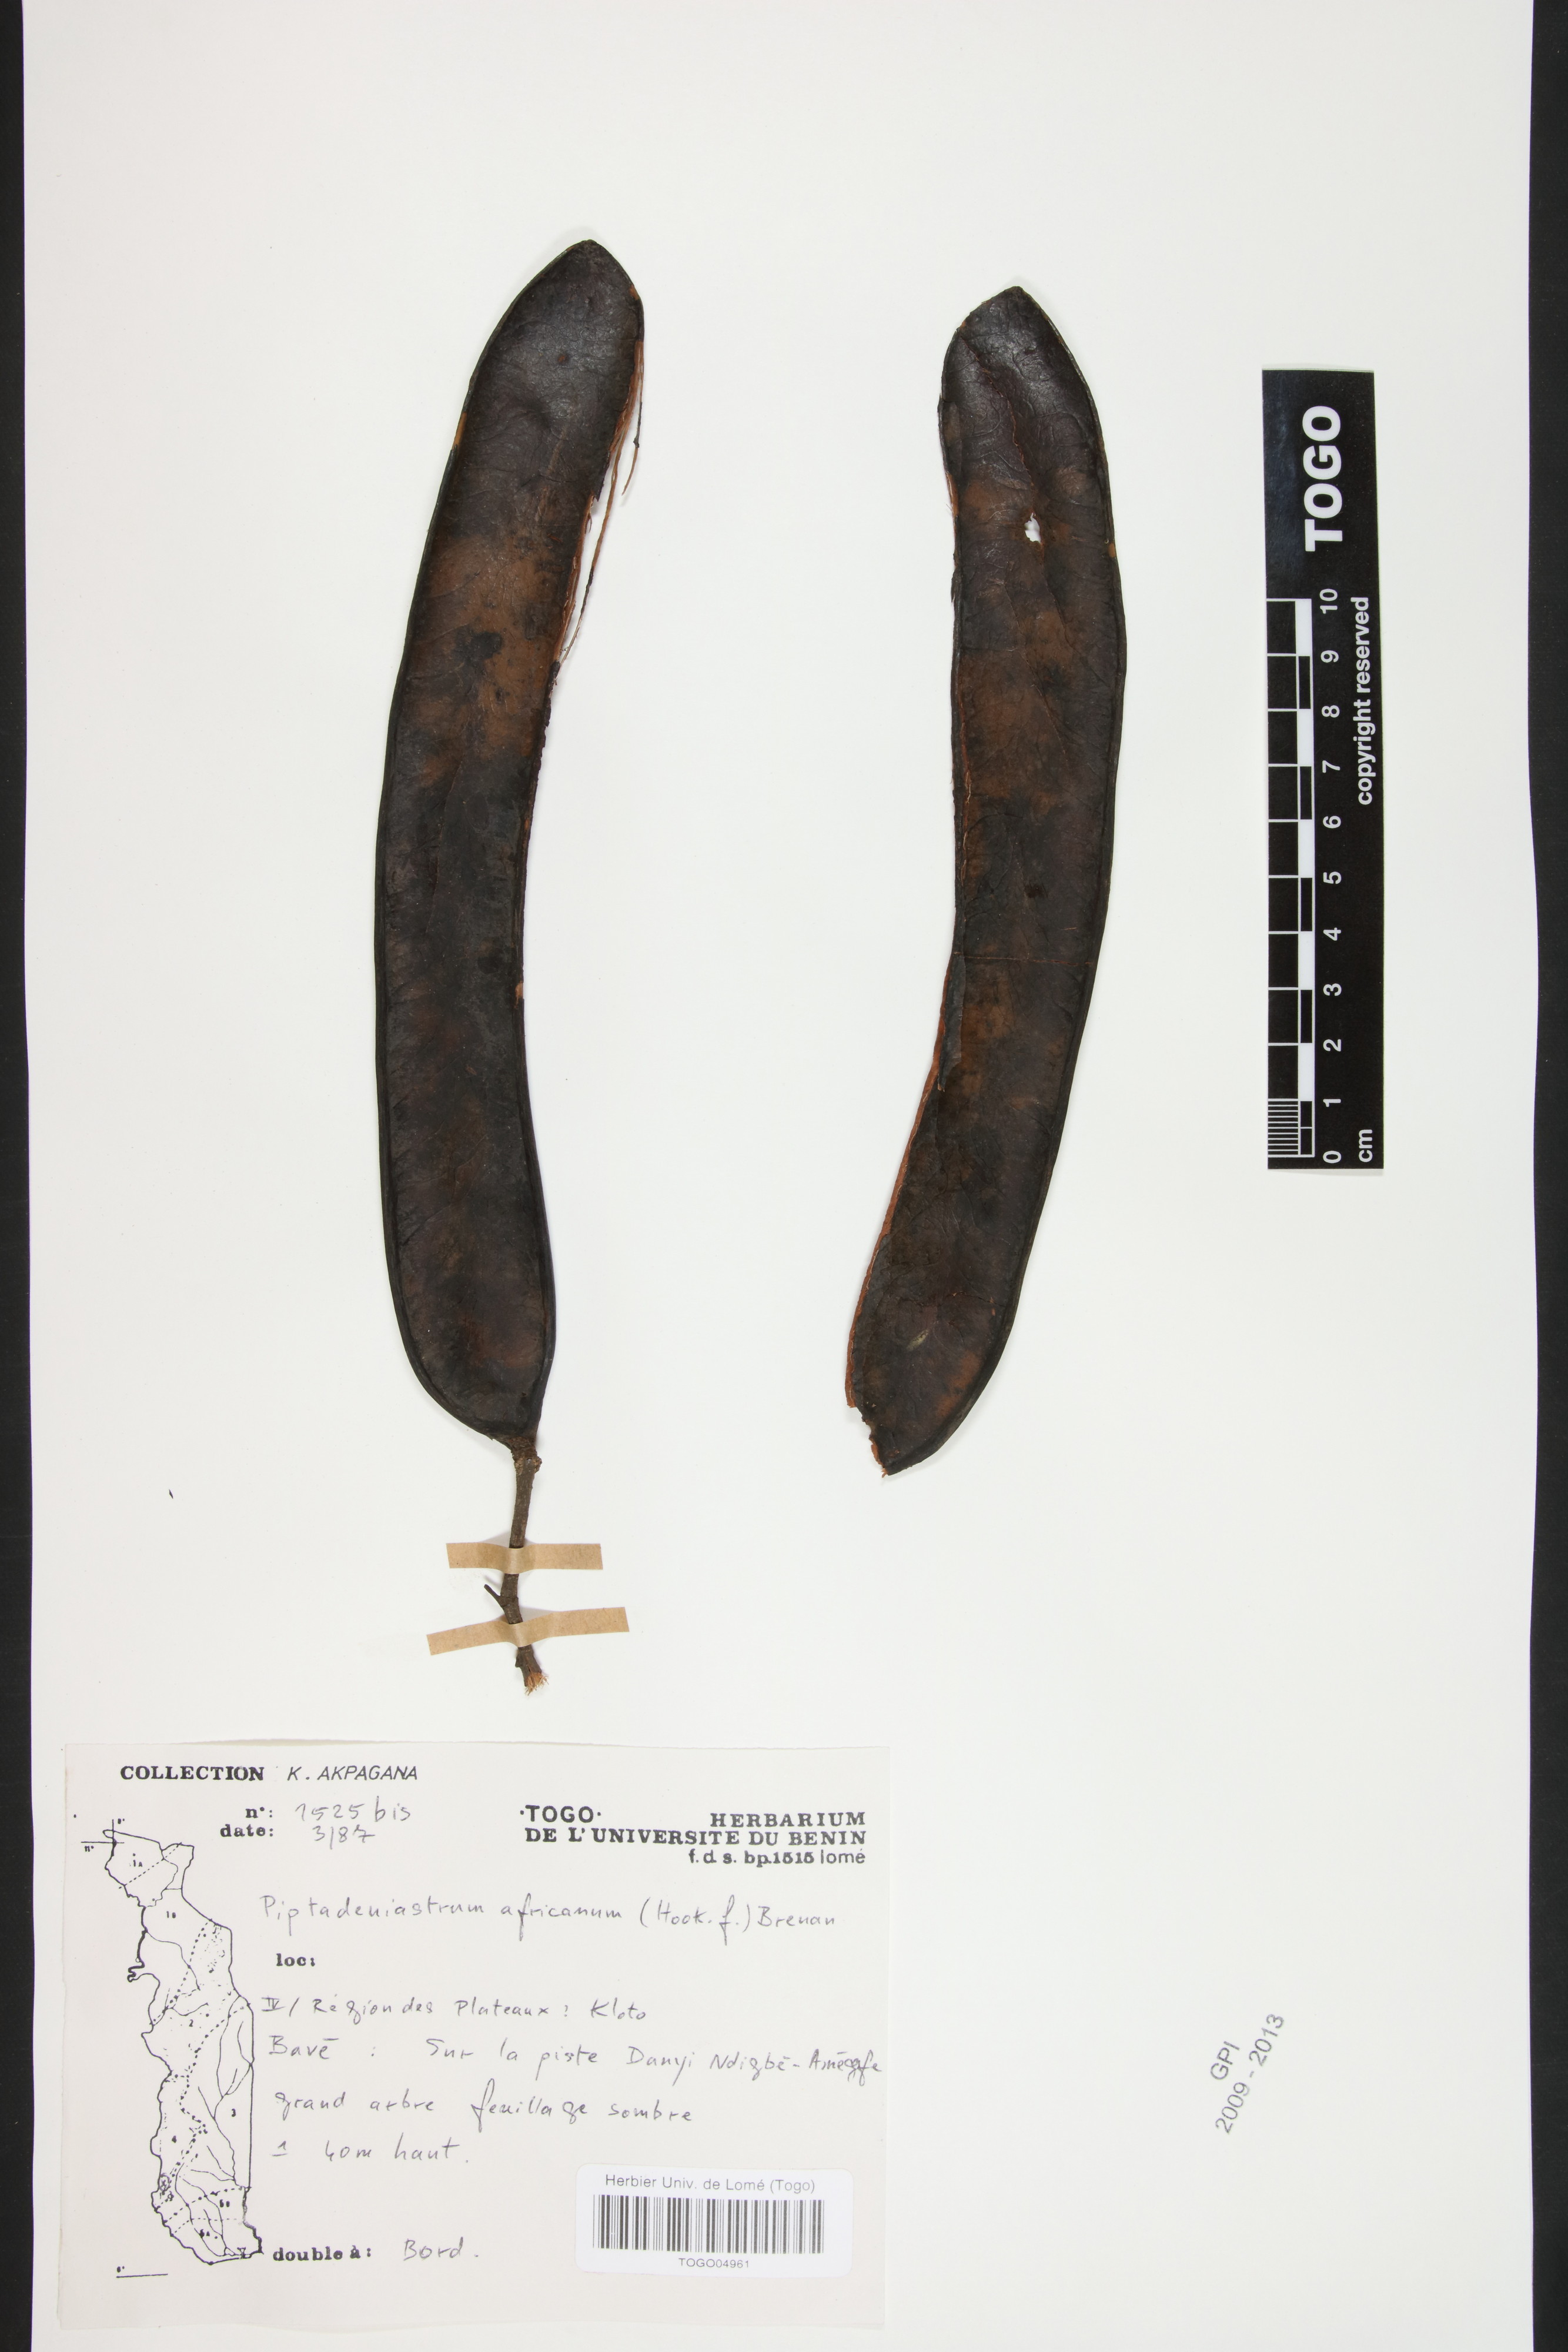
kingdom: Plantae
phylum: Tracheophyta
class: Magnoliopsida
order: Fabales
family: Fabaceae
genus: Piptadeniastrum
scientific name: Piptadeniastrum africanum
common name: African greenheart
